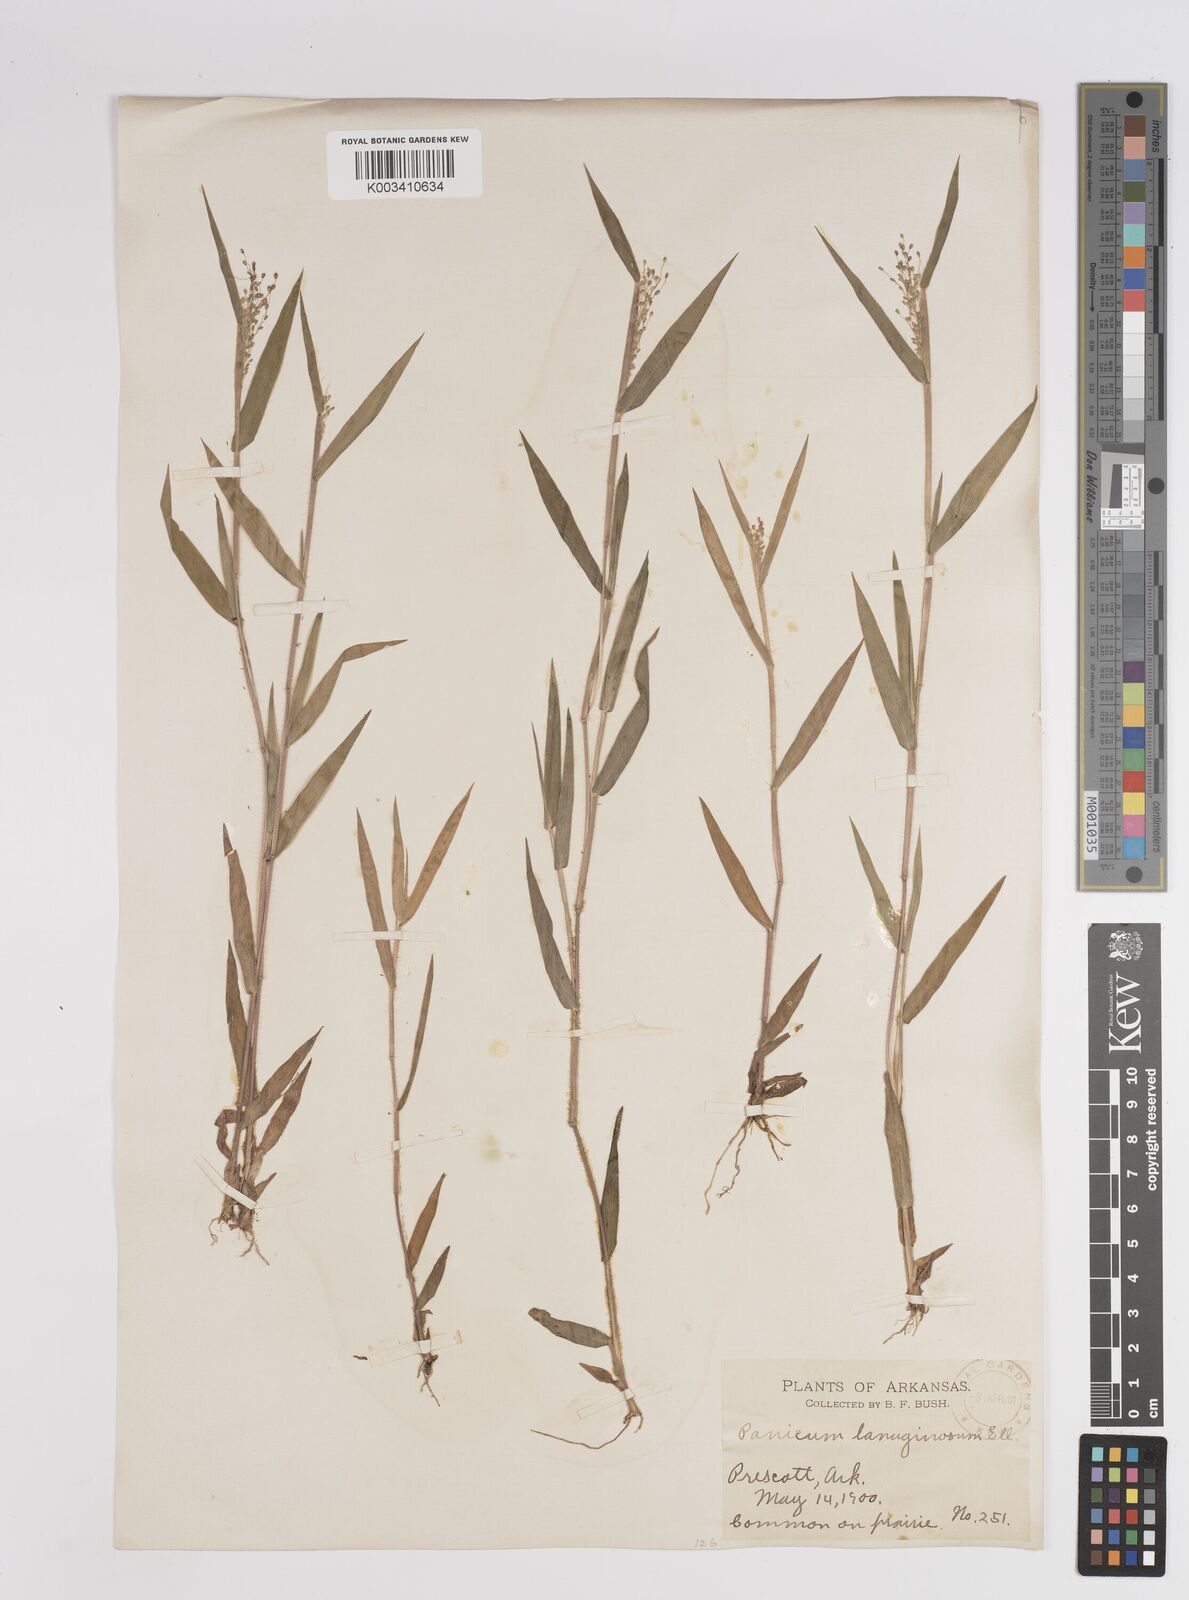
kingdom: Plantae
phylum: Tracheophyta
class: Liliopsida
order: Poales
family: Poaceae
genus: Dichanthelium
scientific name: Dichanthelium lanuginosum
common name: Woolly panicgrass
